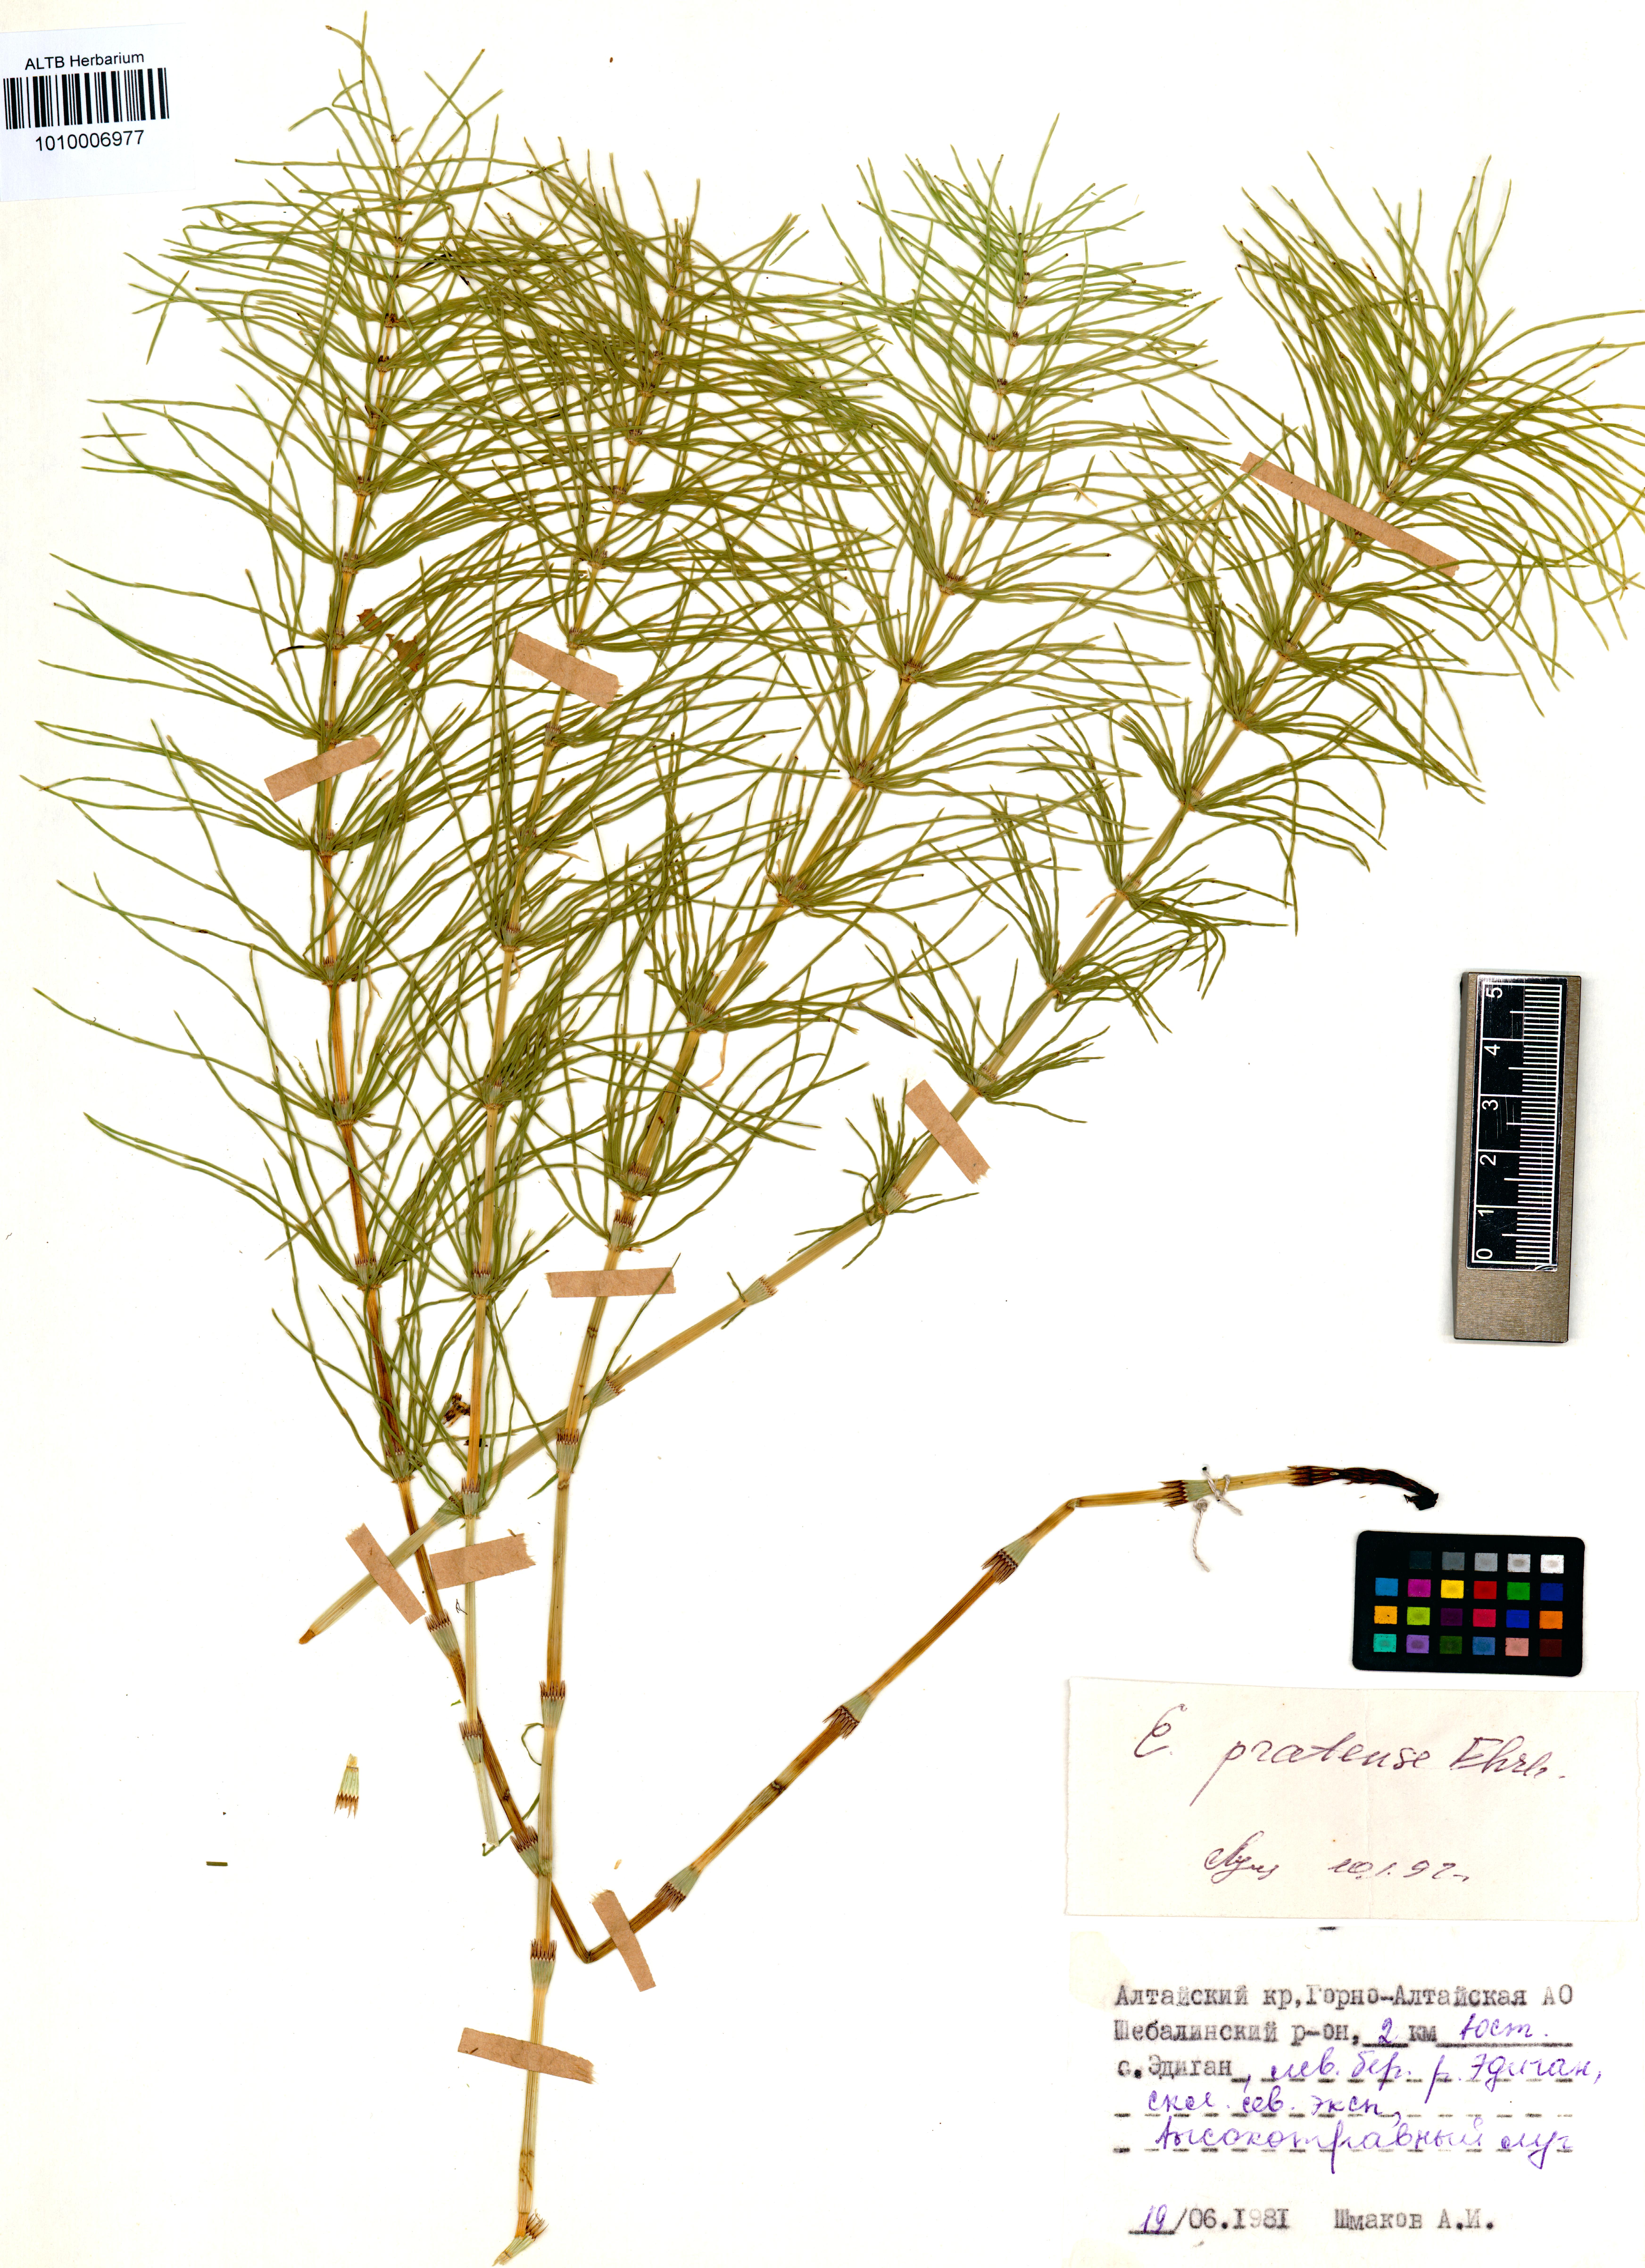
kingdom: Plantae
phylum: Tracheophyta
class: Polypodiopsida
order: Equisetales
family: Equisetaceae
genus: Equisetum
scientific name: Equisetum pratense
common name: Meadow horsetail
